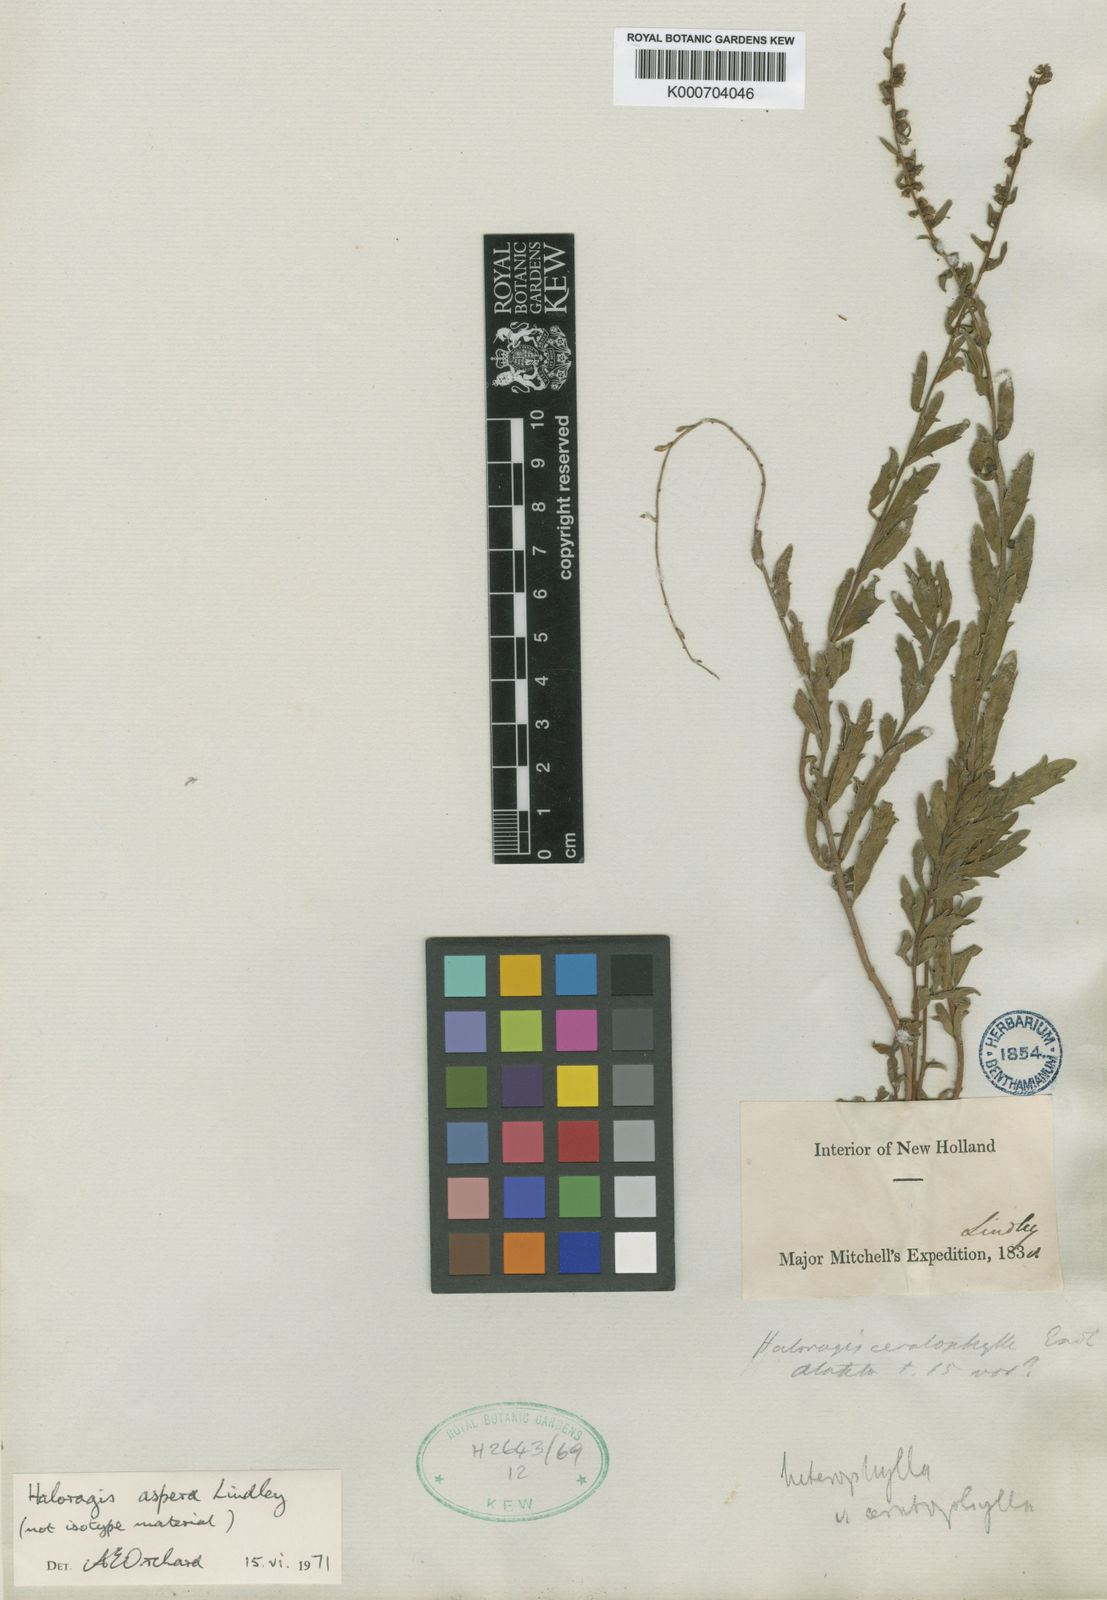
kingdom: Plantae
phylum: Tracheophyta
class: Magnoliopsida
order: Saxifragales
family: Haloragaceae
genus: Haloragis
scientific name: Haloragis heterophylla
